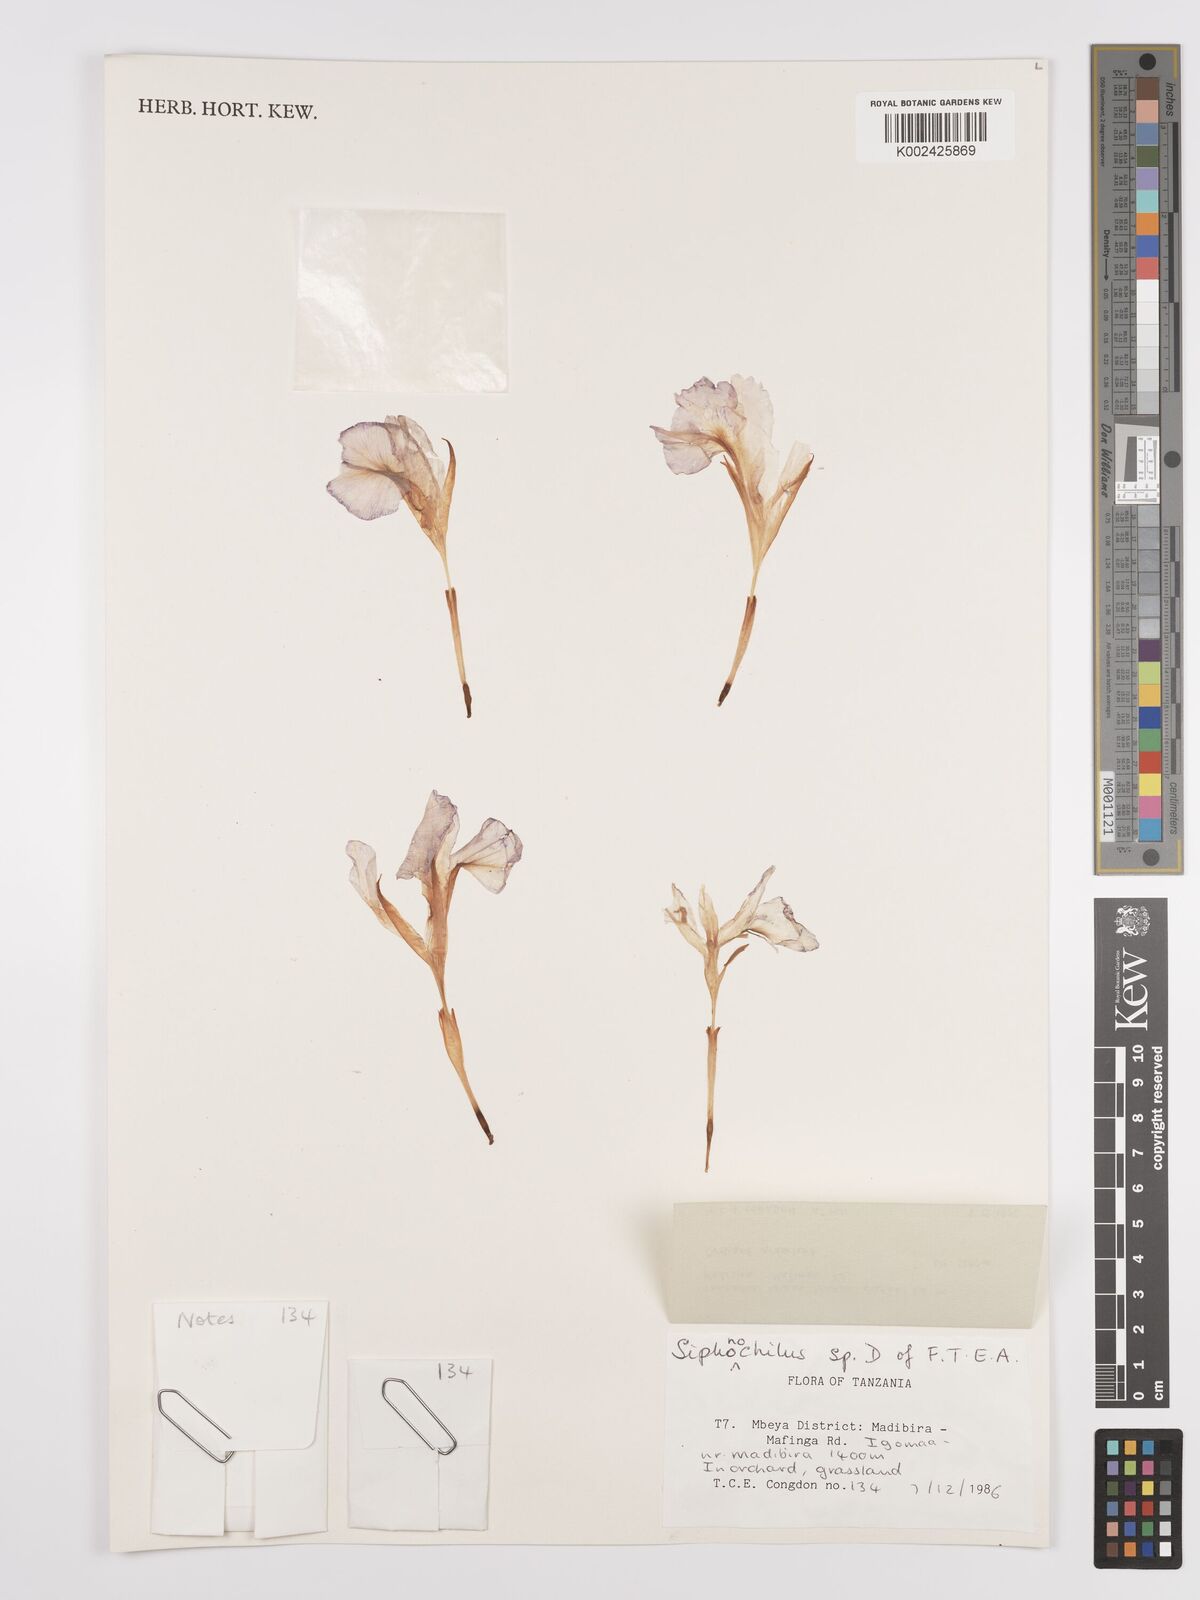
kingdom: Plantae
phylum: Tracheophyta
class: Liliopsida
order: Zingiberales
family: Zingiberaceae
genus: Siphonochilus
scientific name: Siphonochilus parvus
